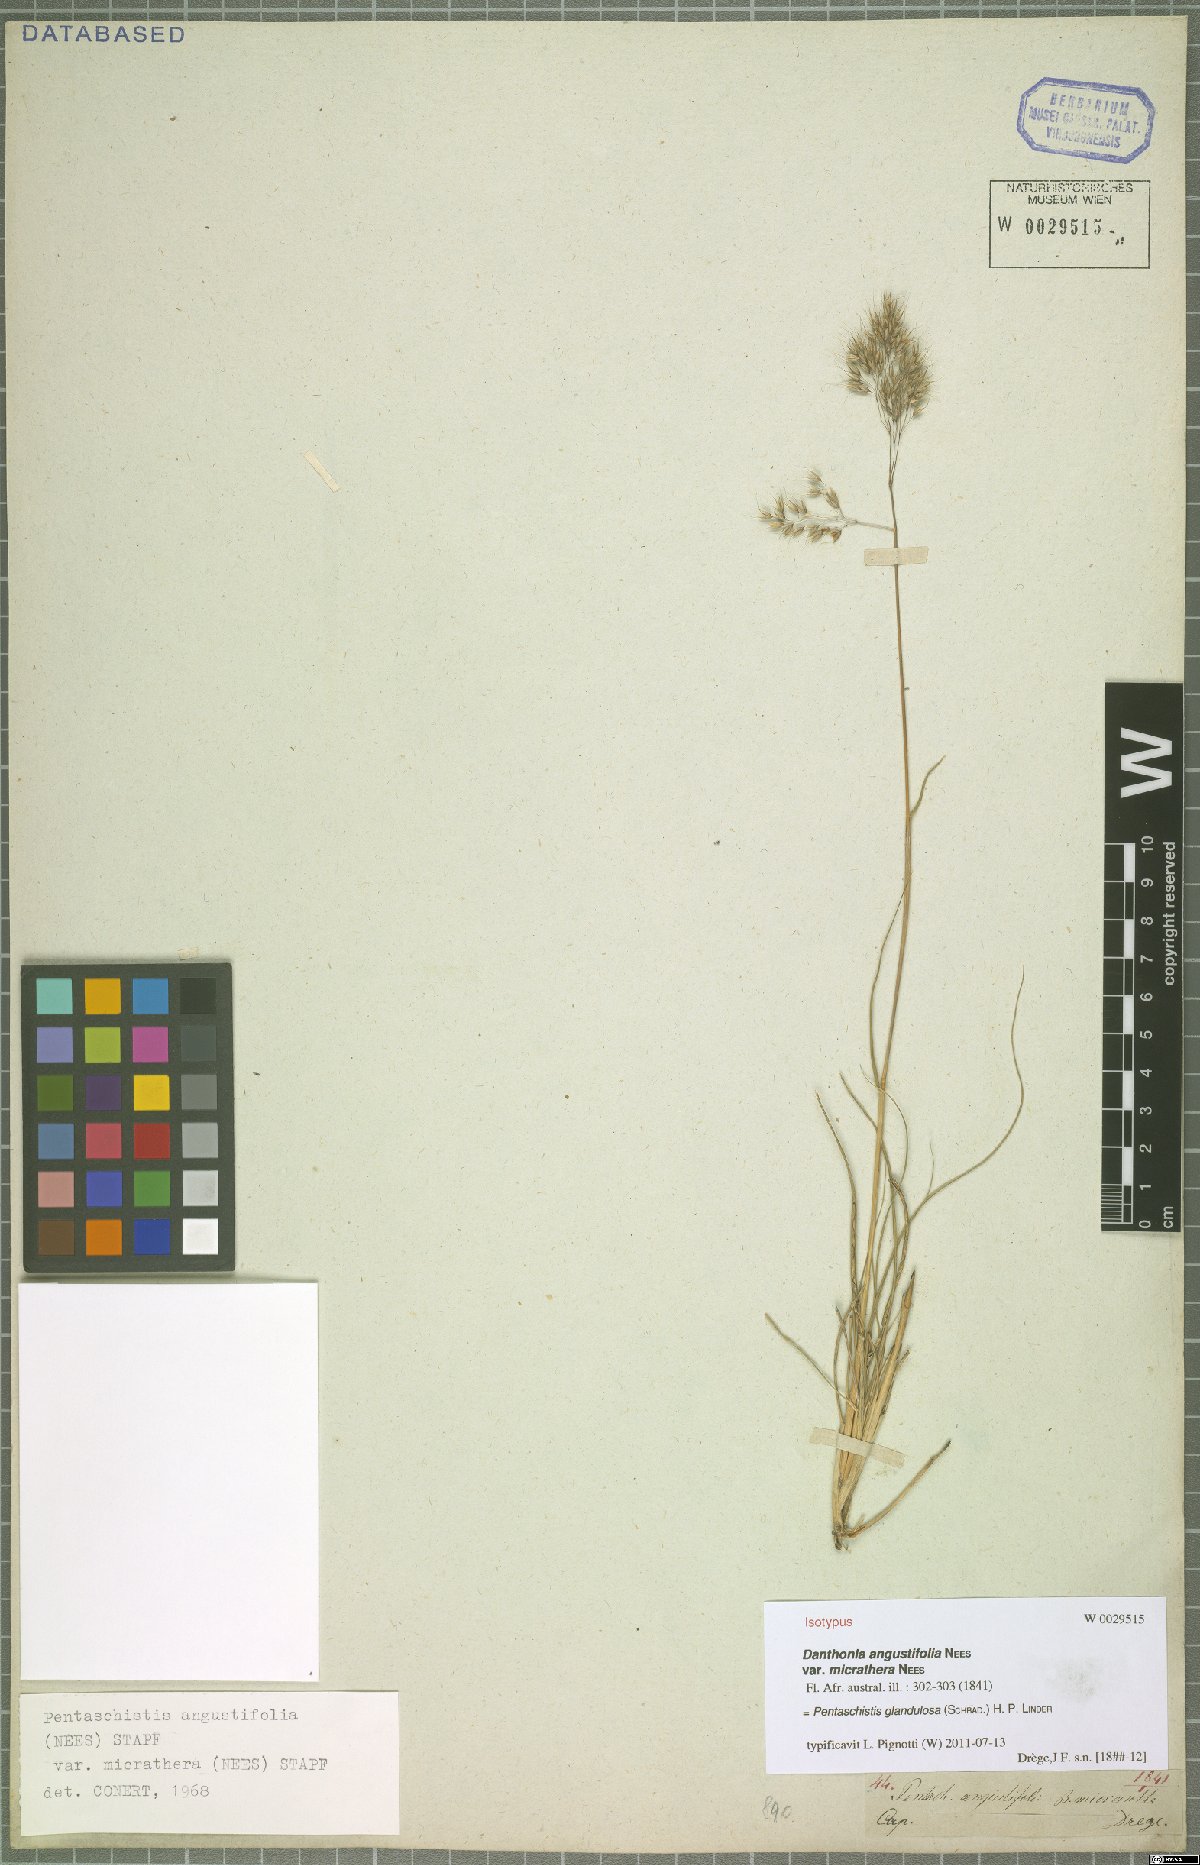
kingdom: Plantae
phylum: Tracheophyta
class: Liliopsida
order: Poales
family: Poaceae
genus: Pentameris
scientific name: Pentameris glandulosa
